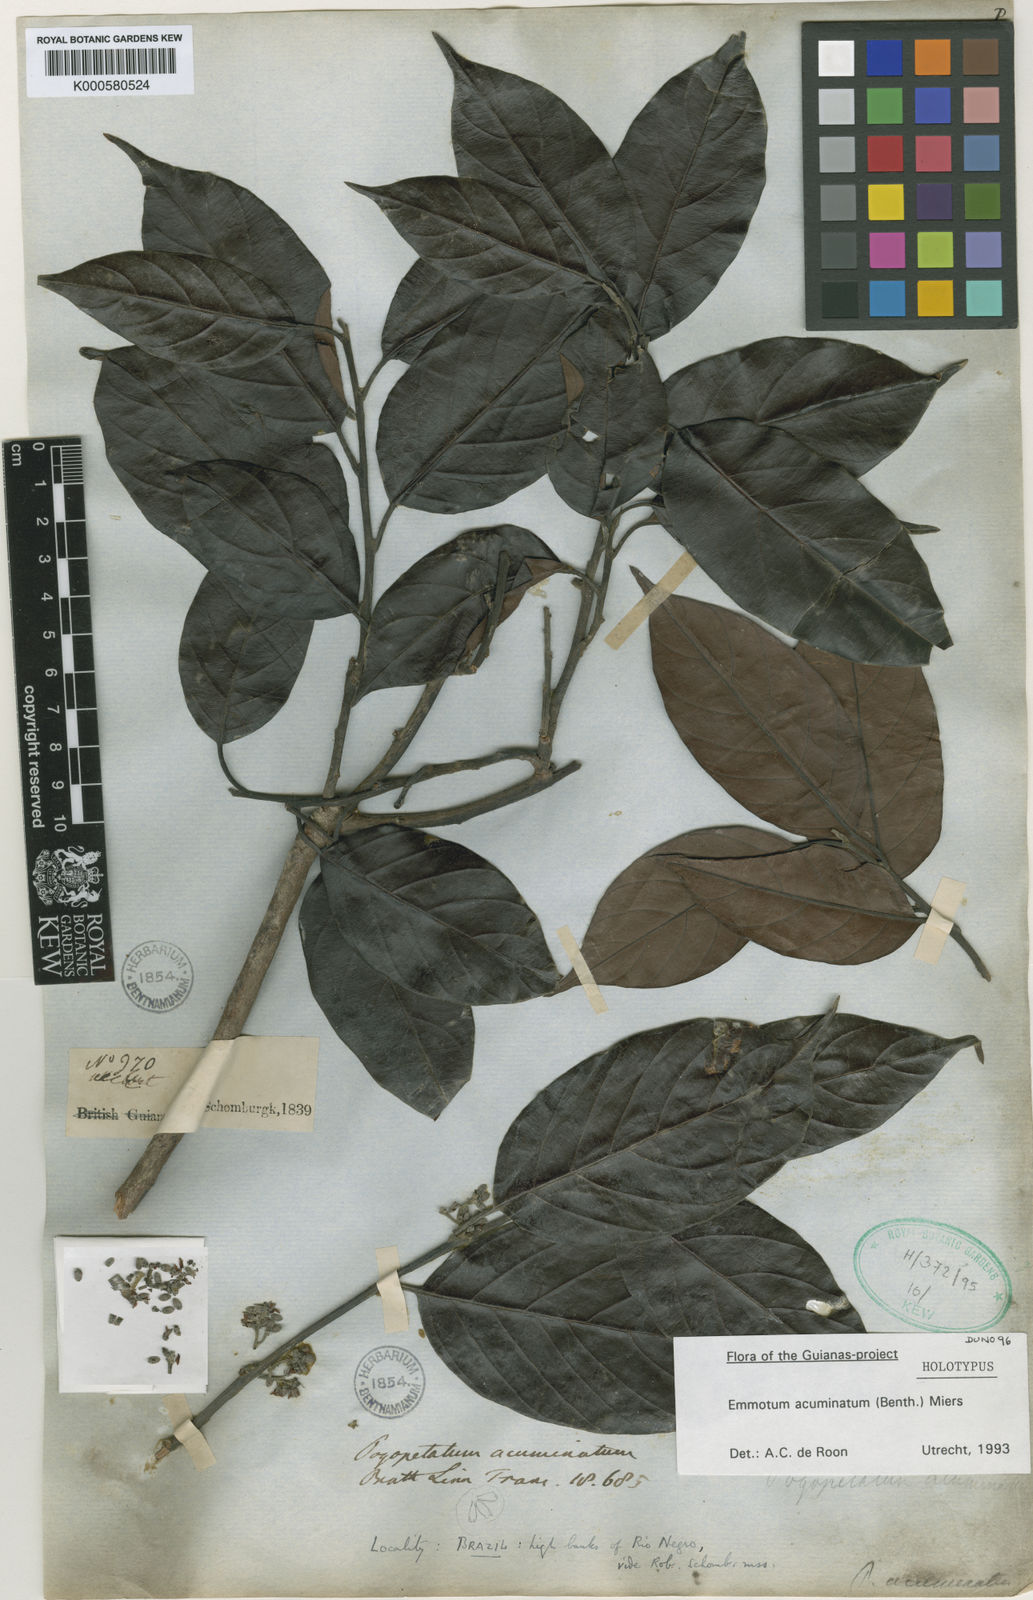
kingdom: Plantae
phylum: Tracheophyta
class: Magnoliopsida
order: Metteniusales
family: Metteniusaceae
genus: Emmotum
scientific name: Emmotum acuminatum
